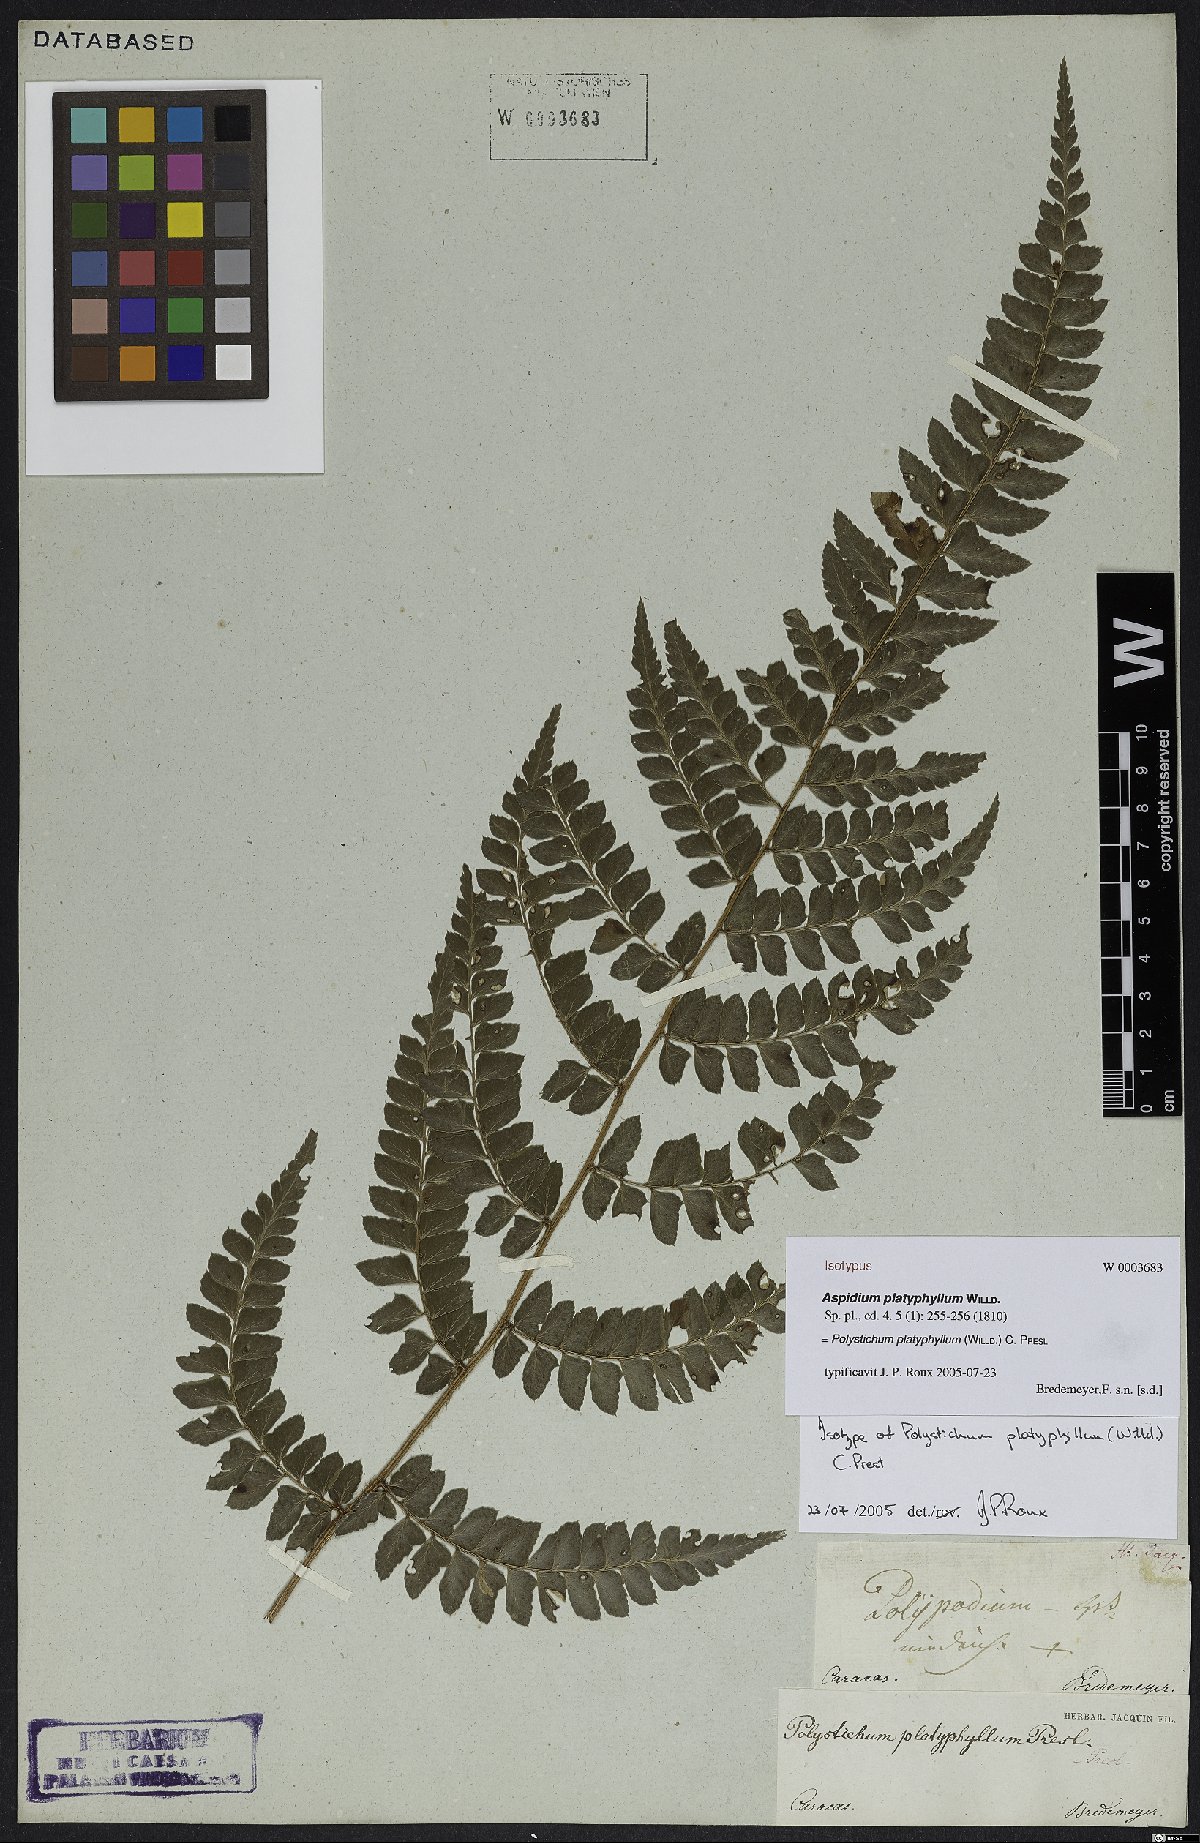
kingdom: Plantae
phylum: Tracheophyta
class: Polypodiopsida
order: Polypodiales
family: Dryopteridaceae
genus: Polystichum
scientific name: Polystichum platyphyllum
